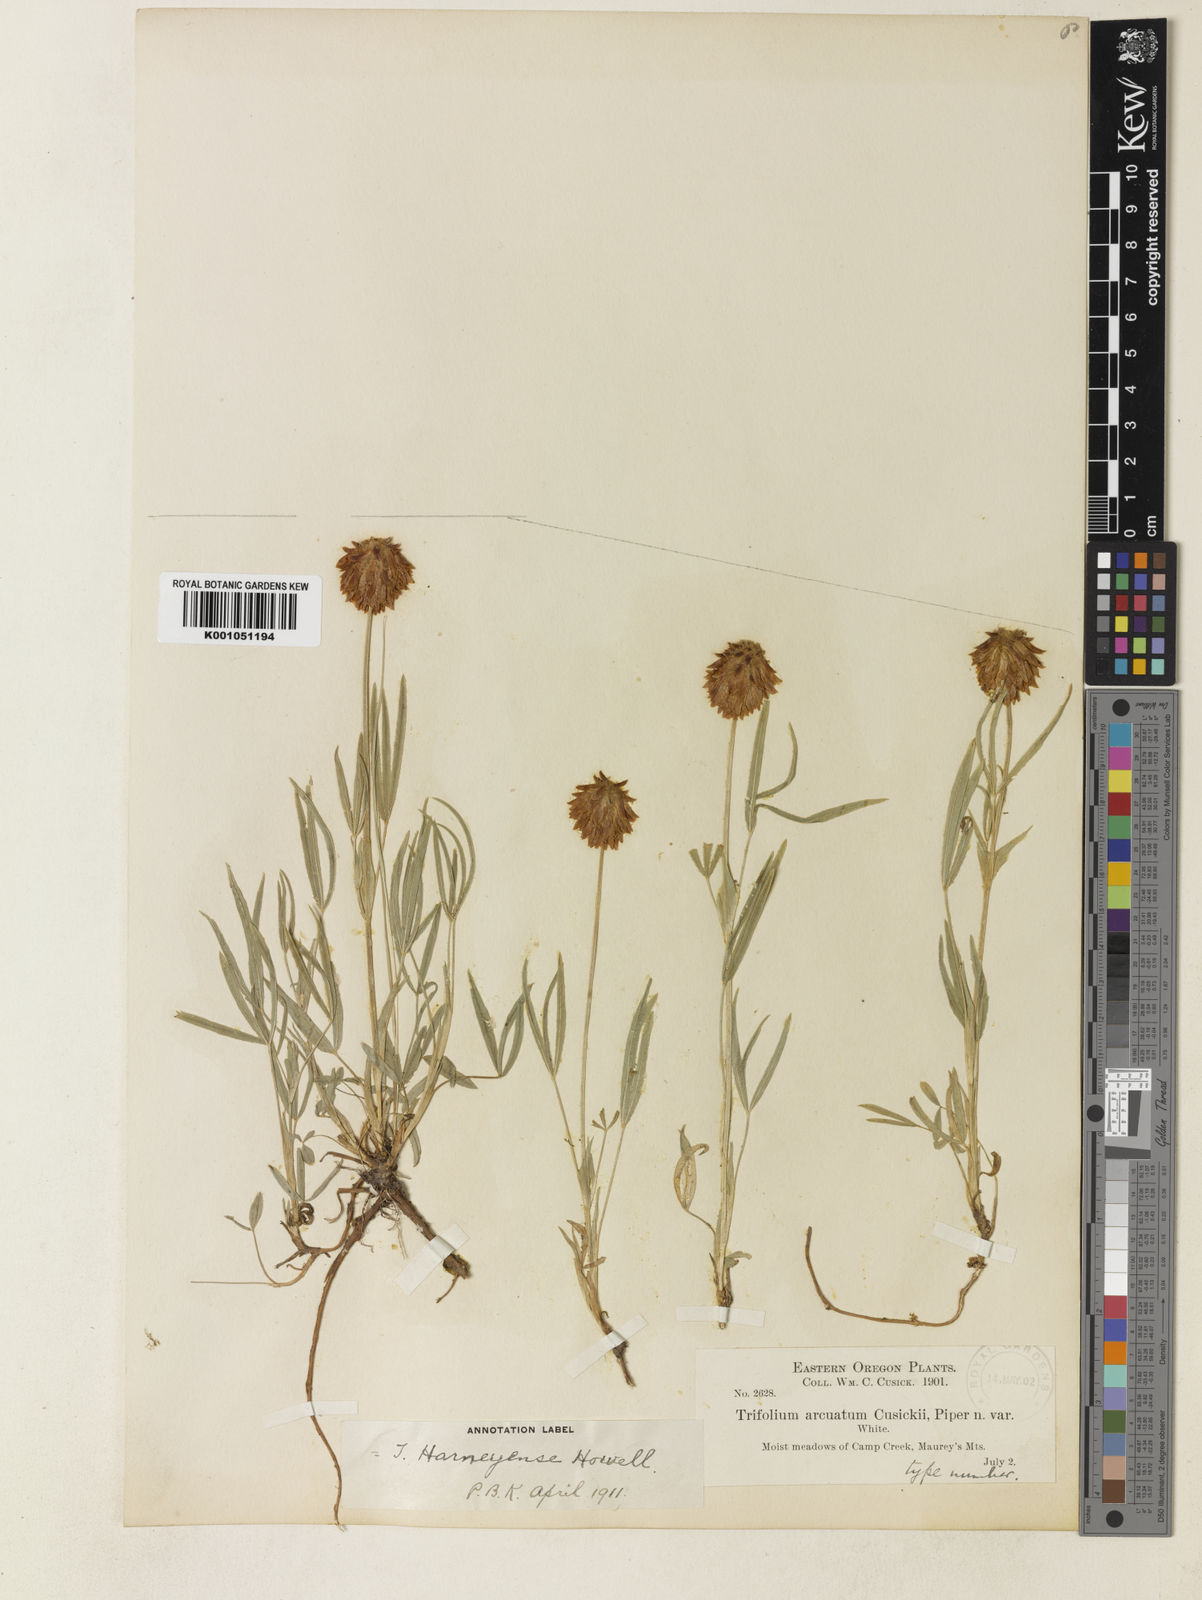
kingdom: Plantae
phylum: Tracheophyta
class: Magnoliopsida
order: Fabales
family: Fabaceae
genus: Trifolium
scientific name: Trifolium eriocephalum
